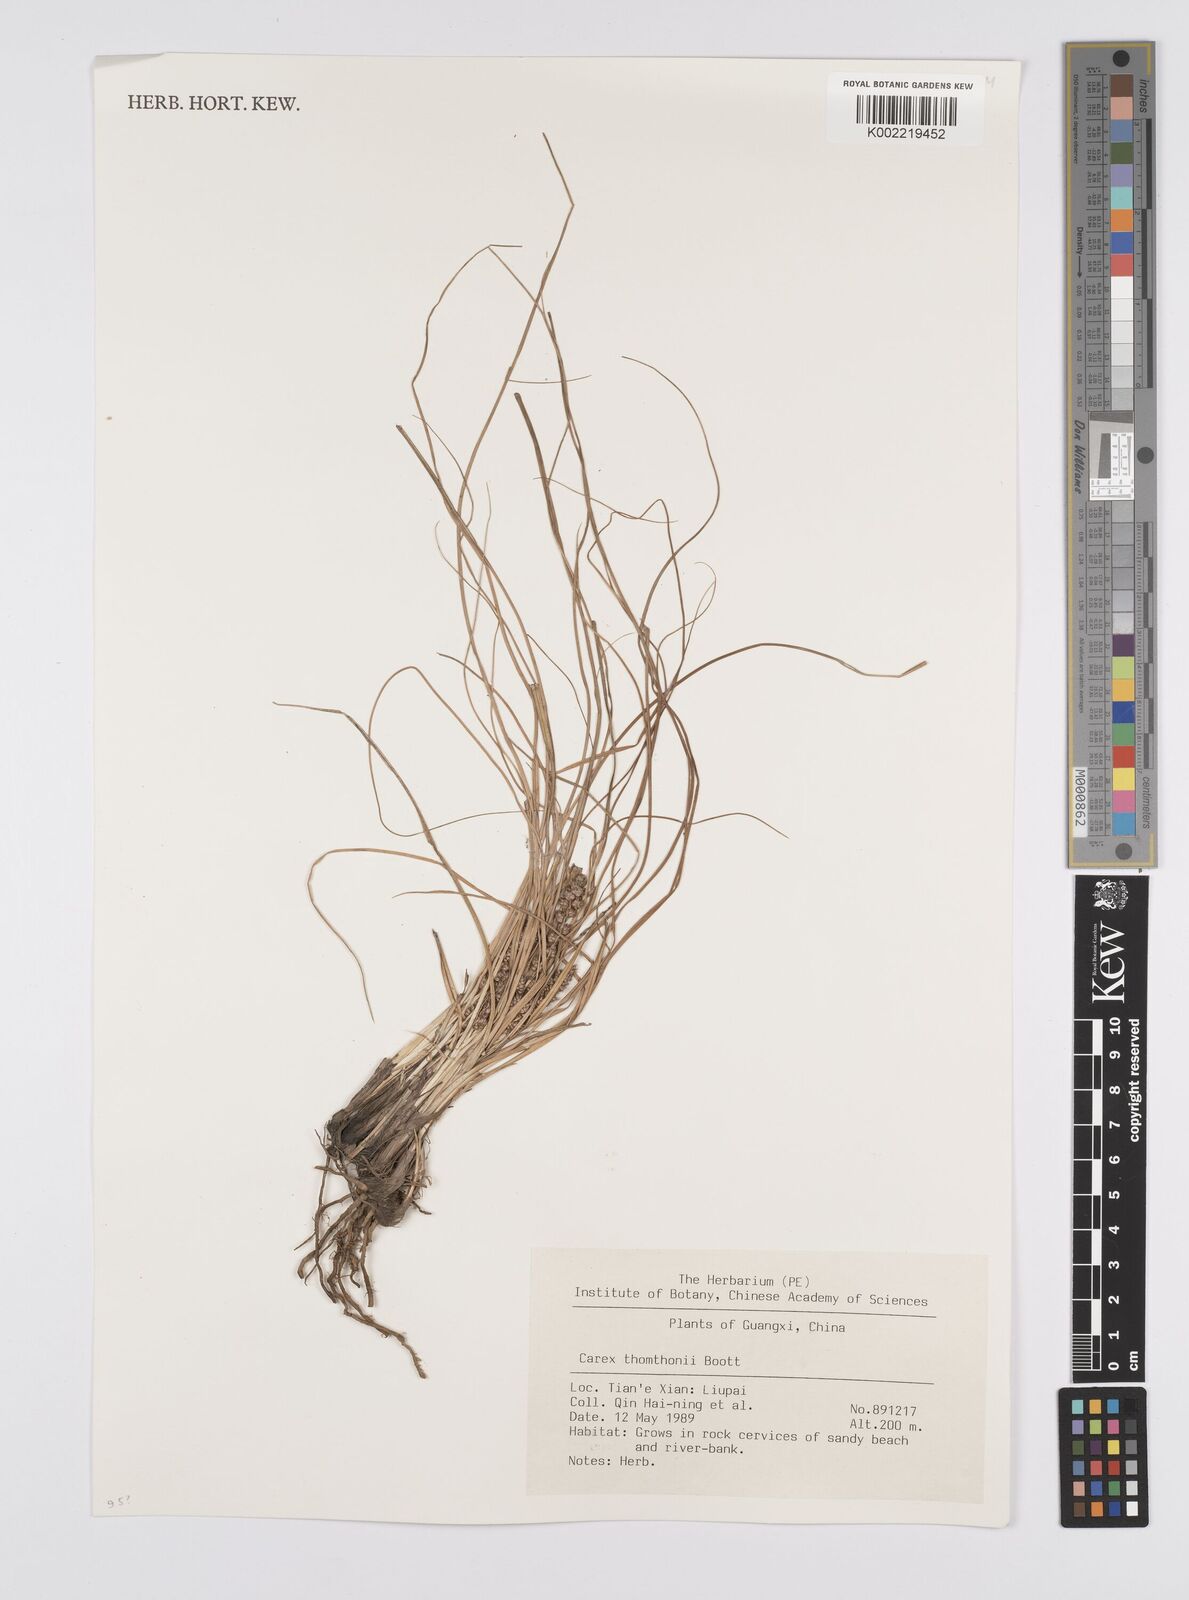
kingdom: Plantae
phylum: Tracheophyta
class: Liliopsida
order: Poales
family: Cyperaceae
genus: Carex
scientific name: Carex thomsonii
